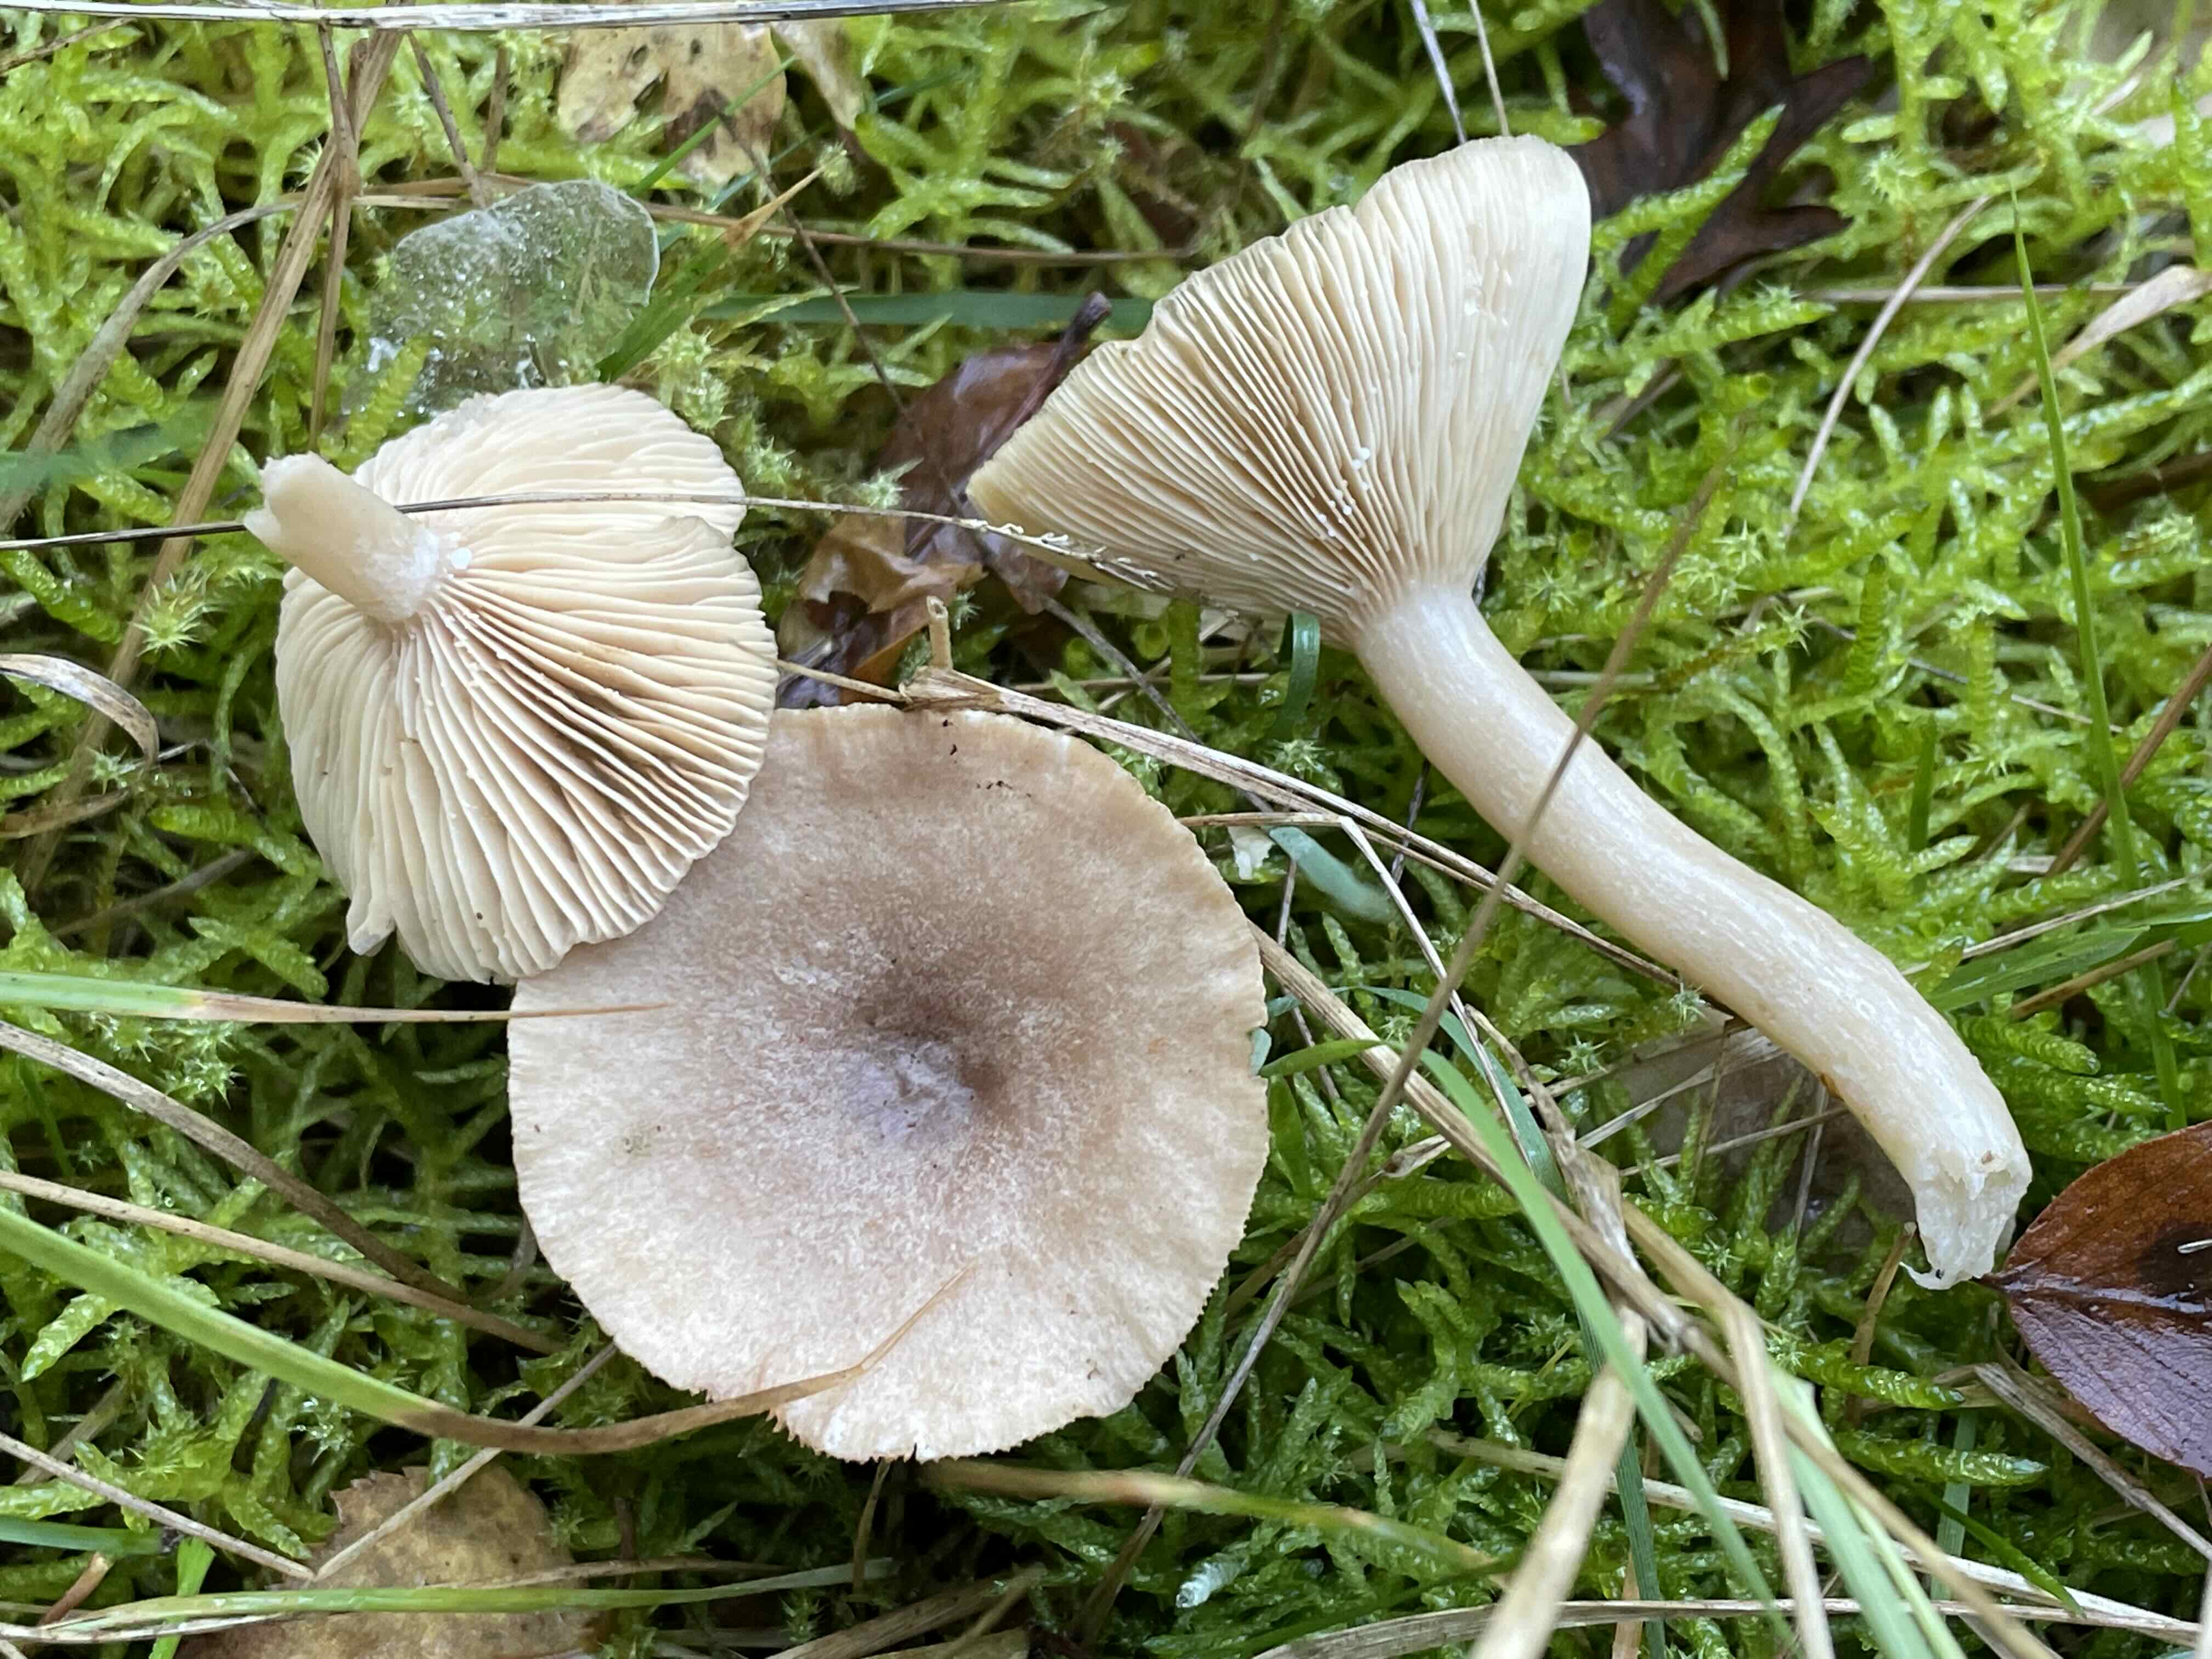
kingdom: Fungi
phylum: Basidiomycota
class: Agaricomycetes
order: Russulales
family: Russulaceae
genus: Lactarius
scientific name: Lactarius glyciosmus
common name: kokos-mælkehat
